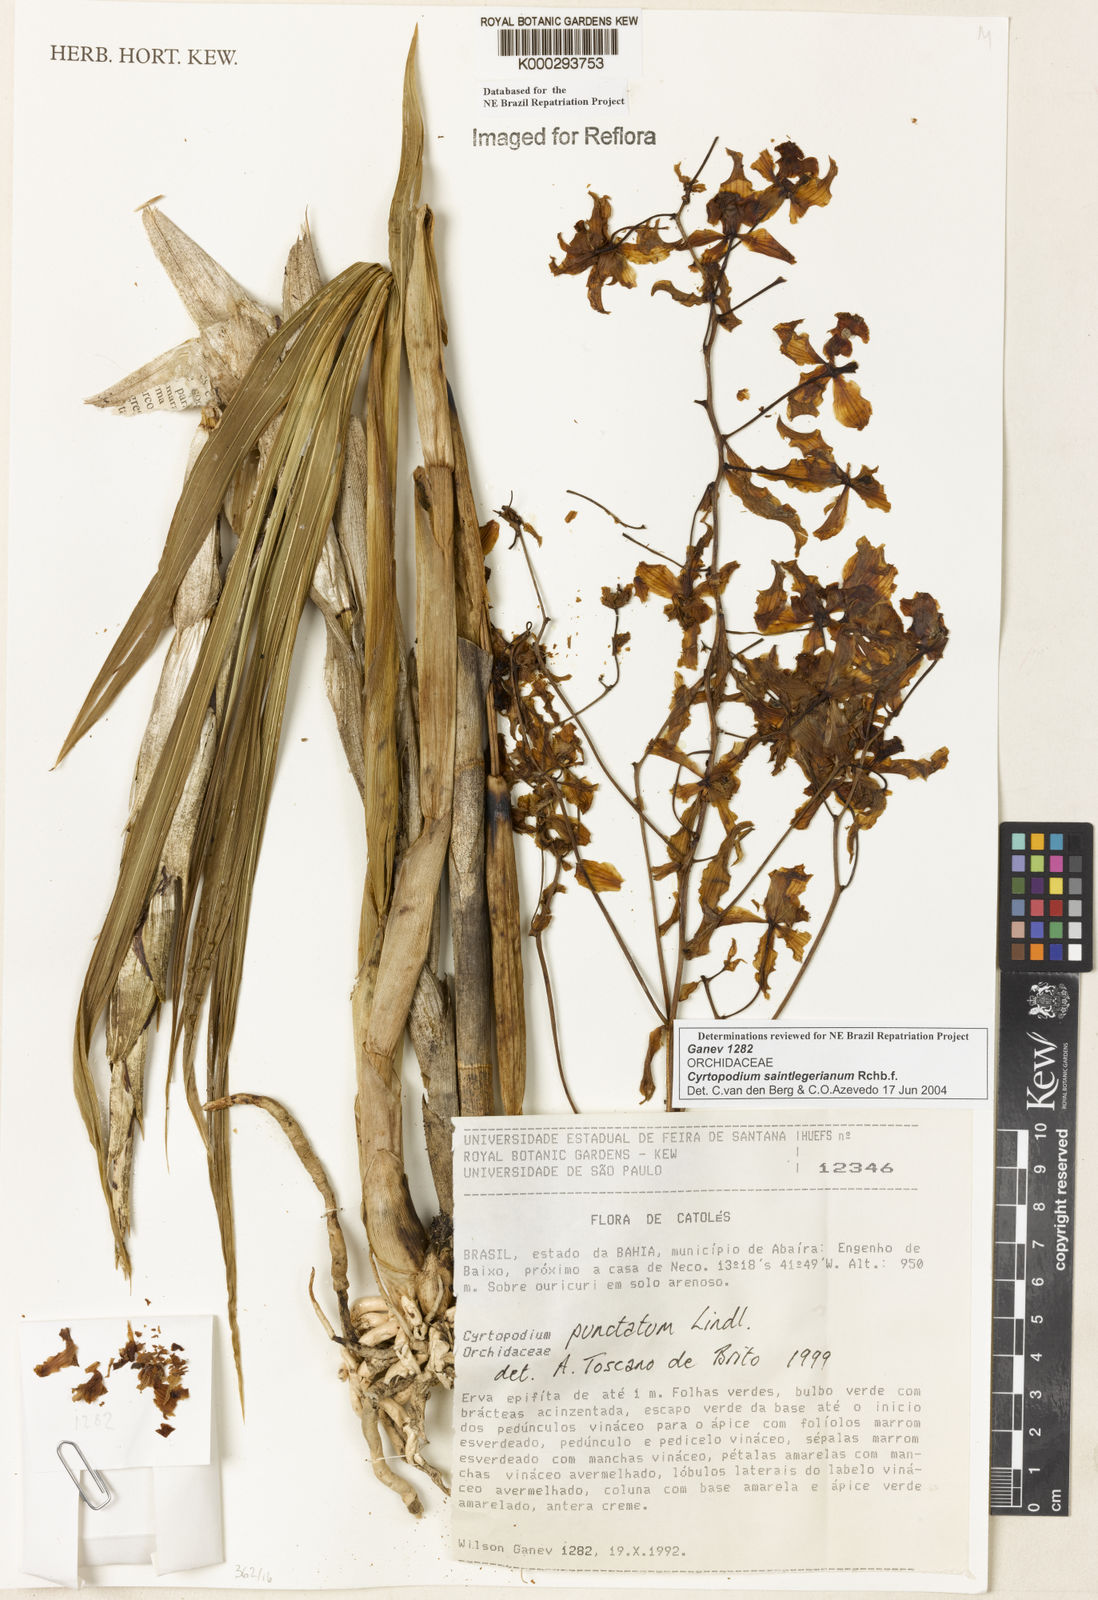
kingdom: Plantae
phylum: Tracheophyta
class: Liliopsida
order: Asparagales
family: Orchidaceae
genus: Cyrtopodium
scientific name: Cyrtopodium saintlegerianum
